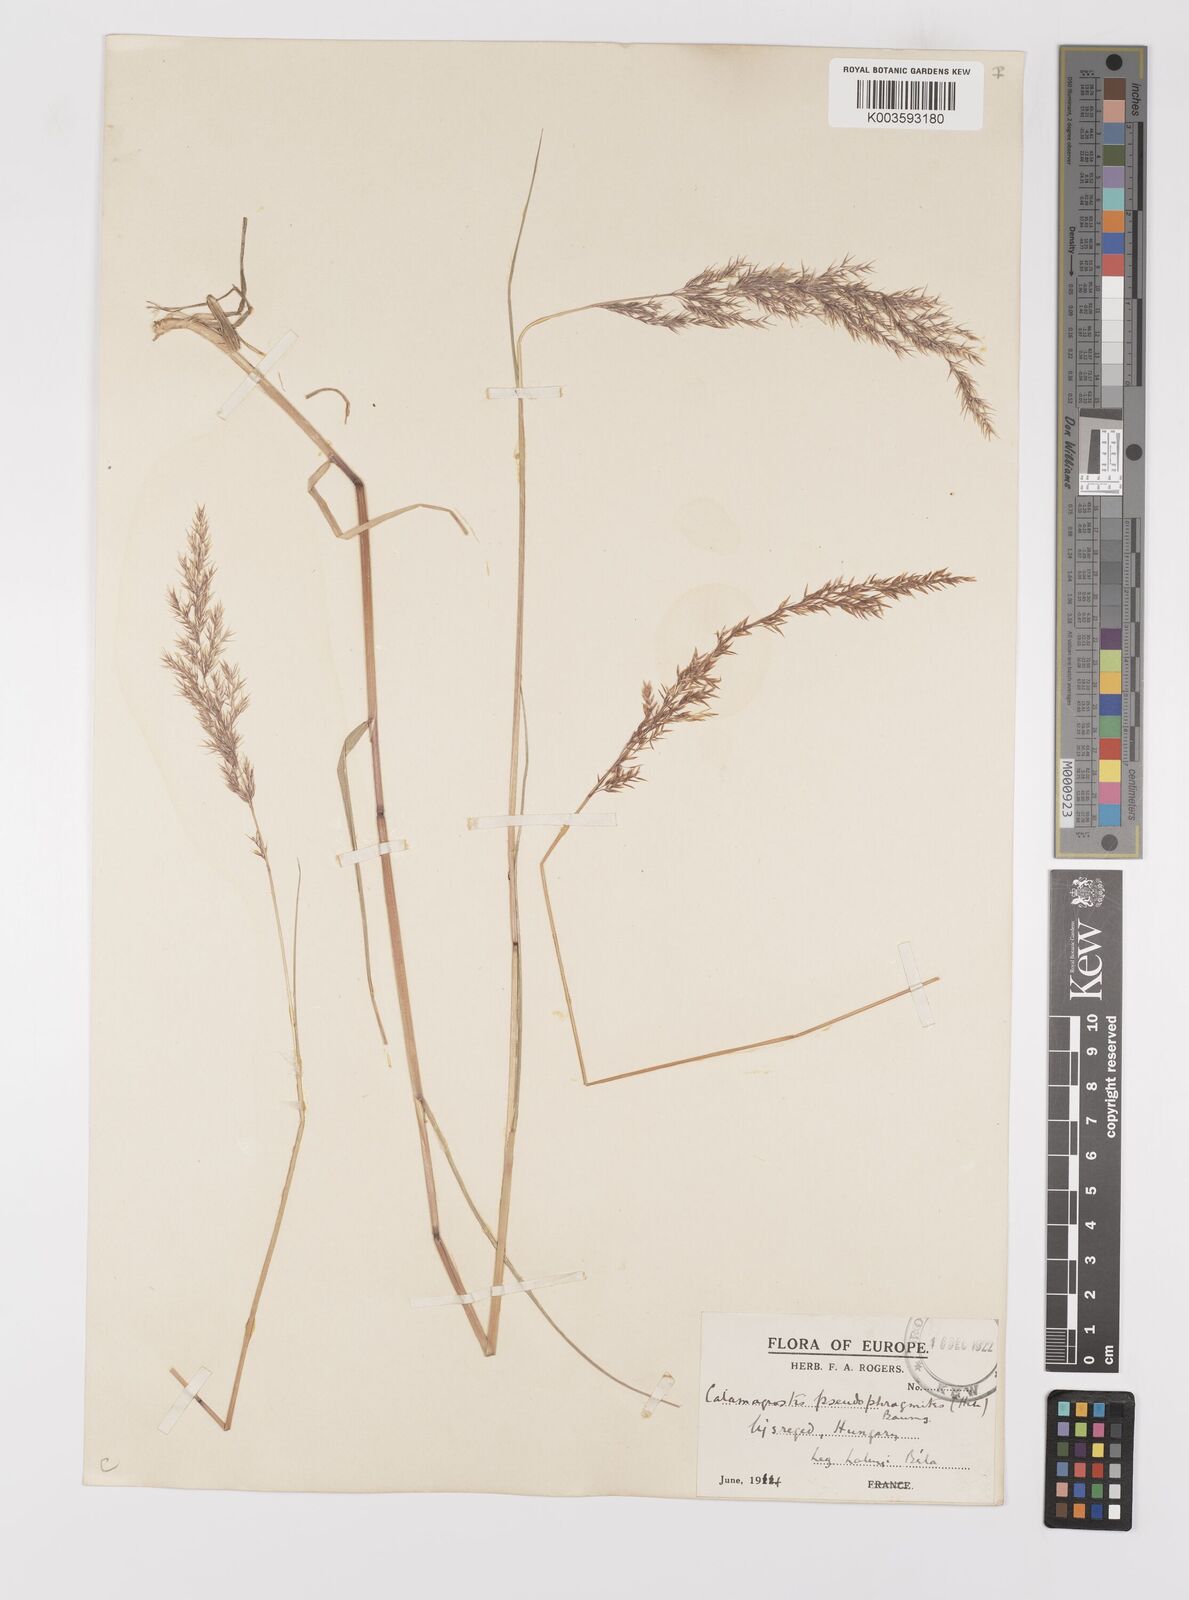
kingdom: Plantae
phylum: Tracheophyta
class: Liliopsida
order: Poales
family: Poaceae
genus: Calamagrostis
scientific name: Calamagrostis
